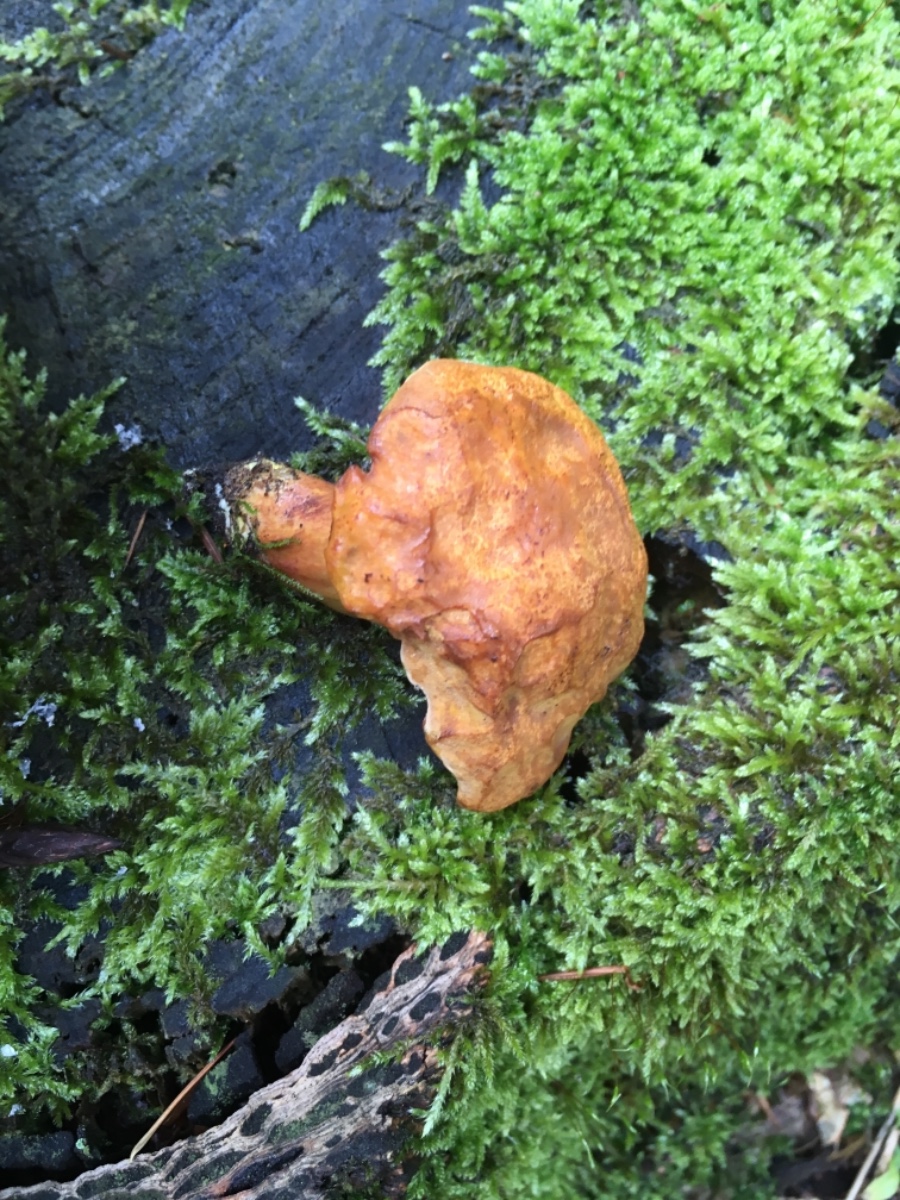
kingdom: Fungi
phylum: Basidiomycota
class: Agaricomycetes
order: Boletales
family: Boletaceae
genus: Buchwaldoboletus
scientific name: Buchwaldoboletus lignicola
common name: stødrørhat
